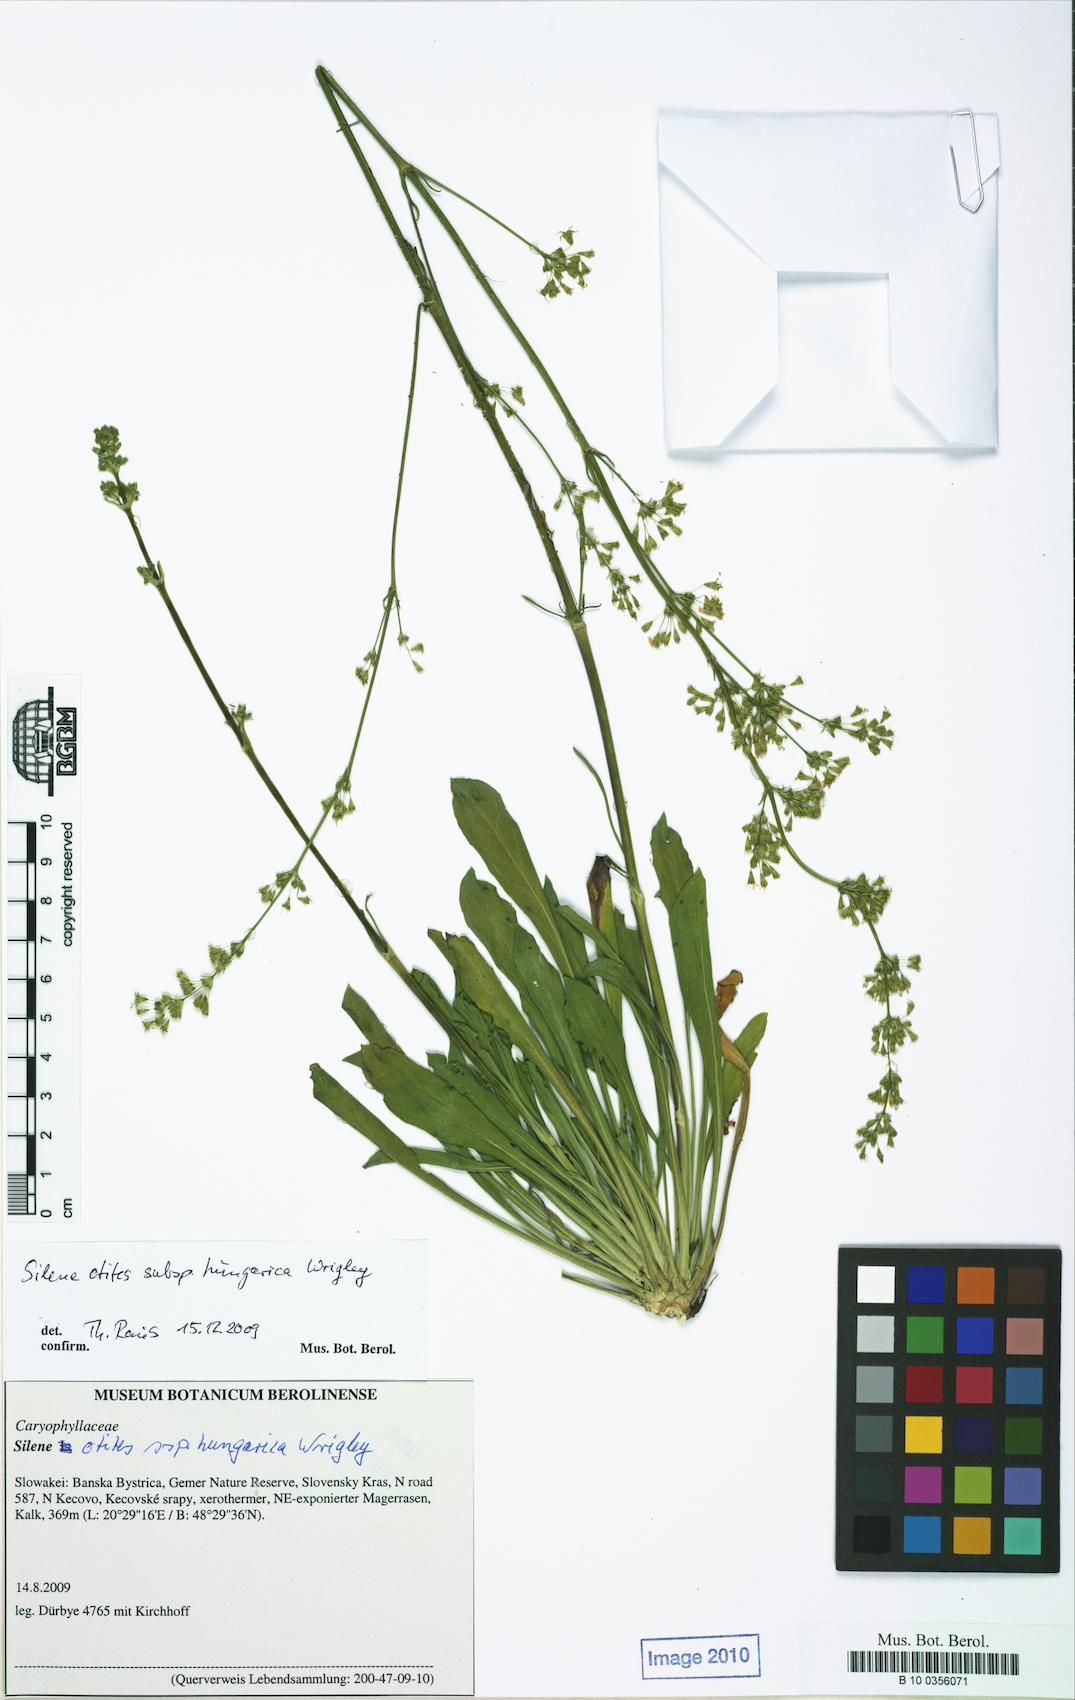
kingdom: Plantae
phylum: Tracheophyta
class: Magnoliopsida
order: Caryophyllales
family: Caryophyllaceae
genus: Silene
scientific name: Silene otites
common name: Spanish catchfly
